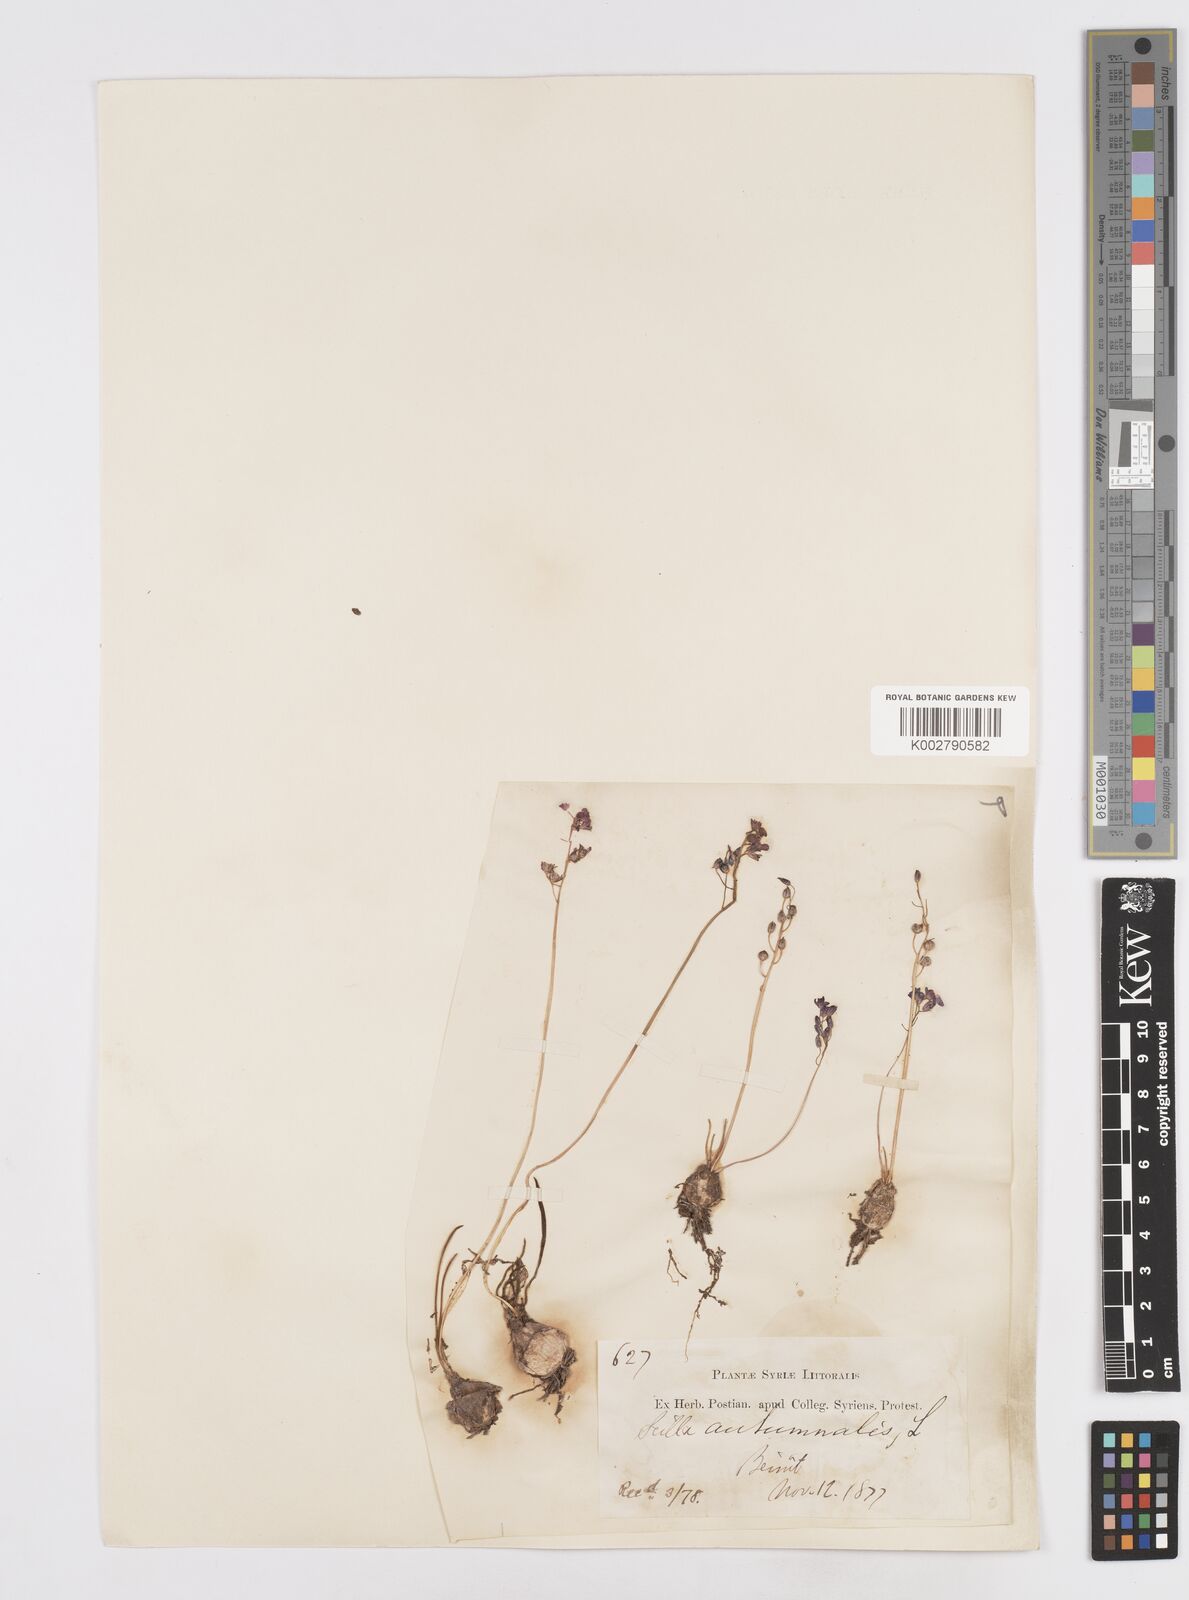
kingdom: Plantae
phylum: Tracheophyta
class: Liliopsida
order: Asparagales
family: Asparagaceae
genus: Prospero
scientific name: Prospero autumnale
